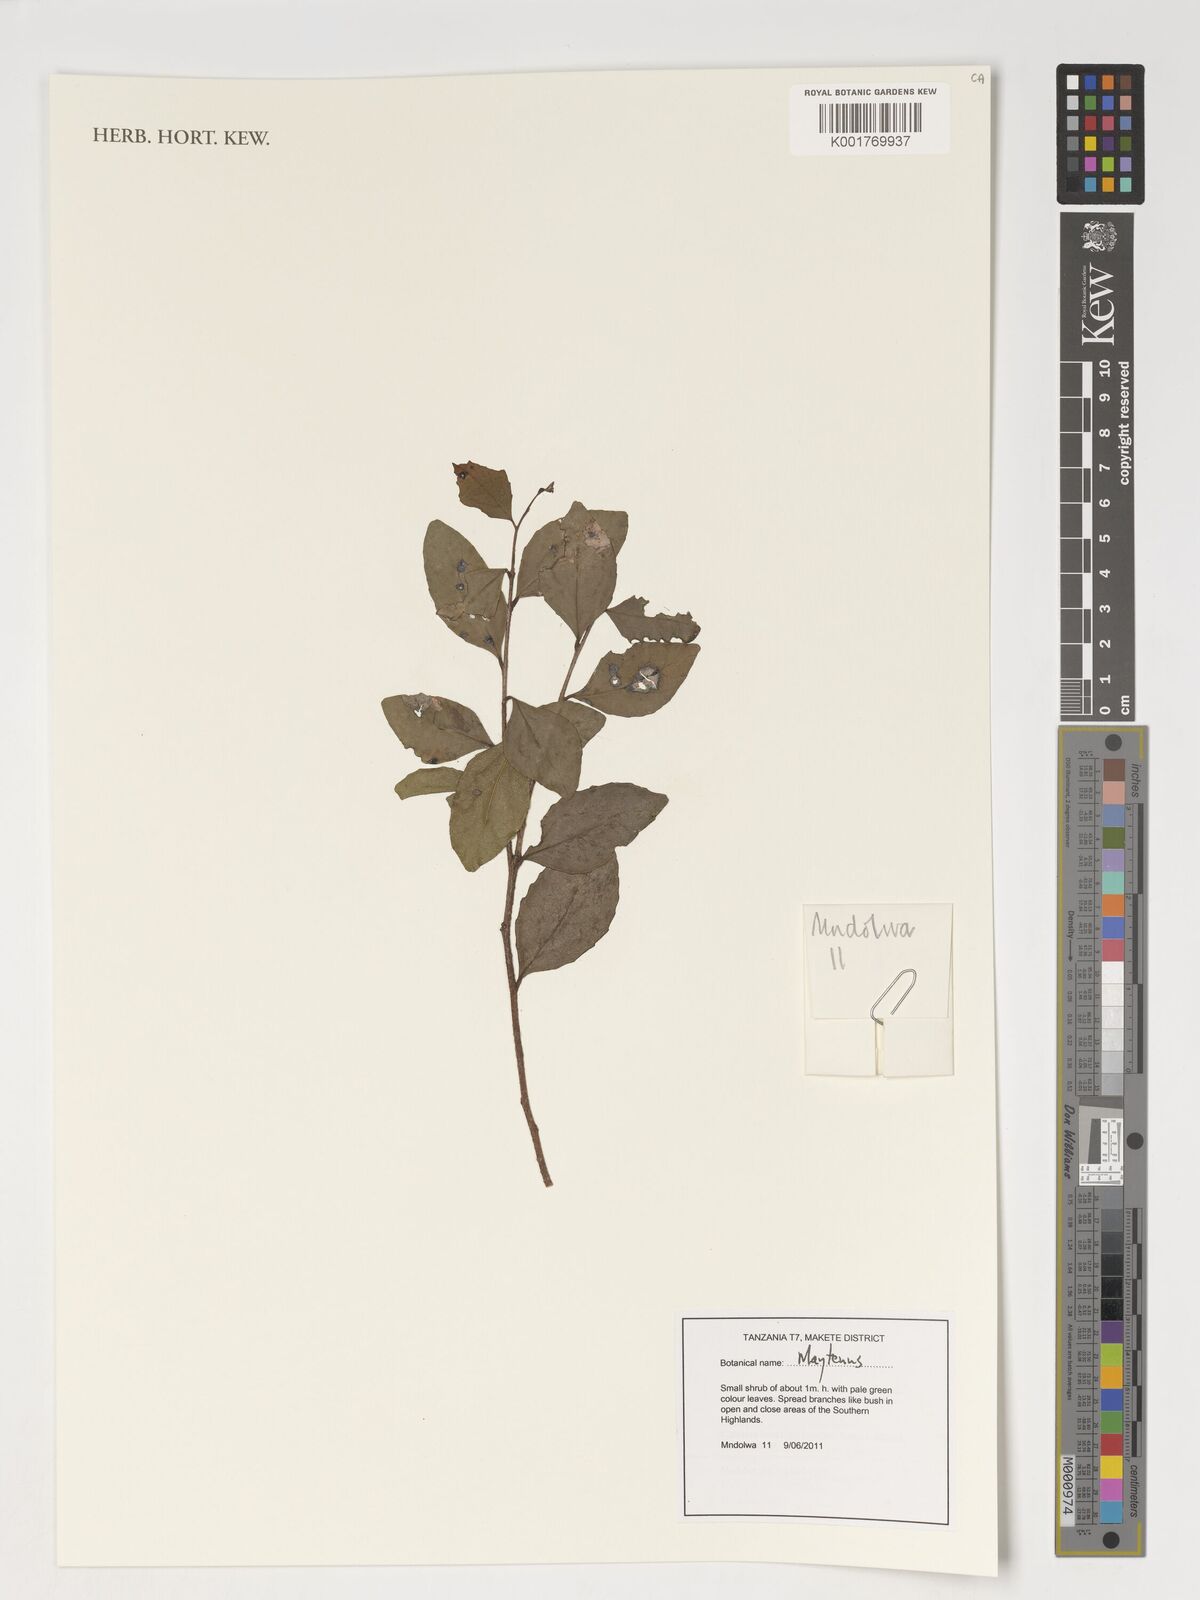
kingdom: Plantae
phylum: Tracheophyta
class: Magnoliopsida
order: Celastrales
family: Celastraceae
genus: Maytenus
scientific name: Maytenus
